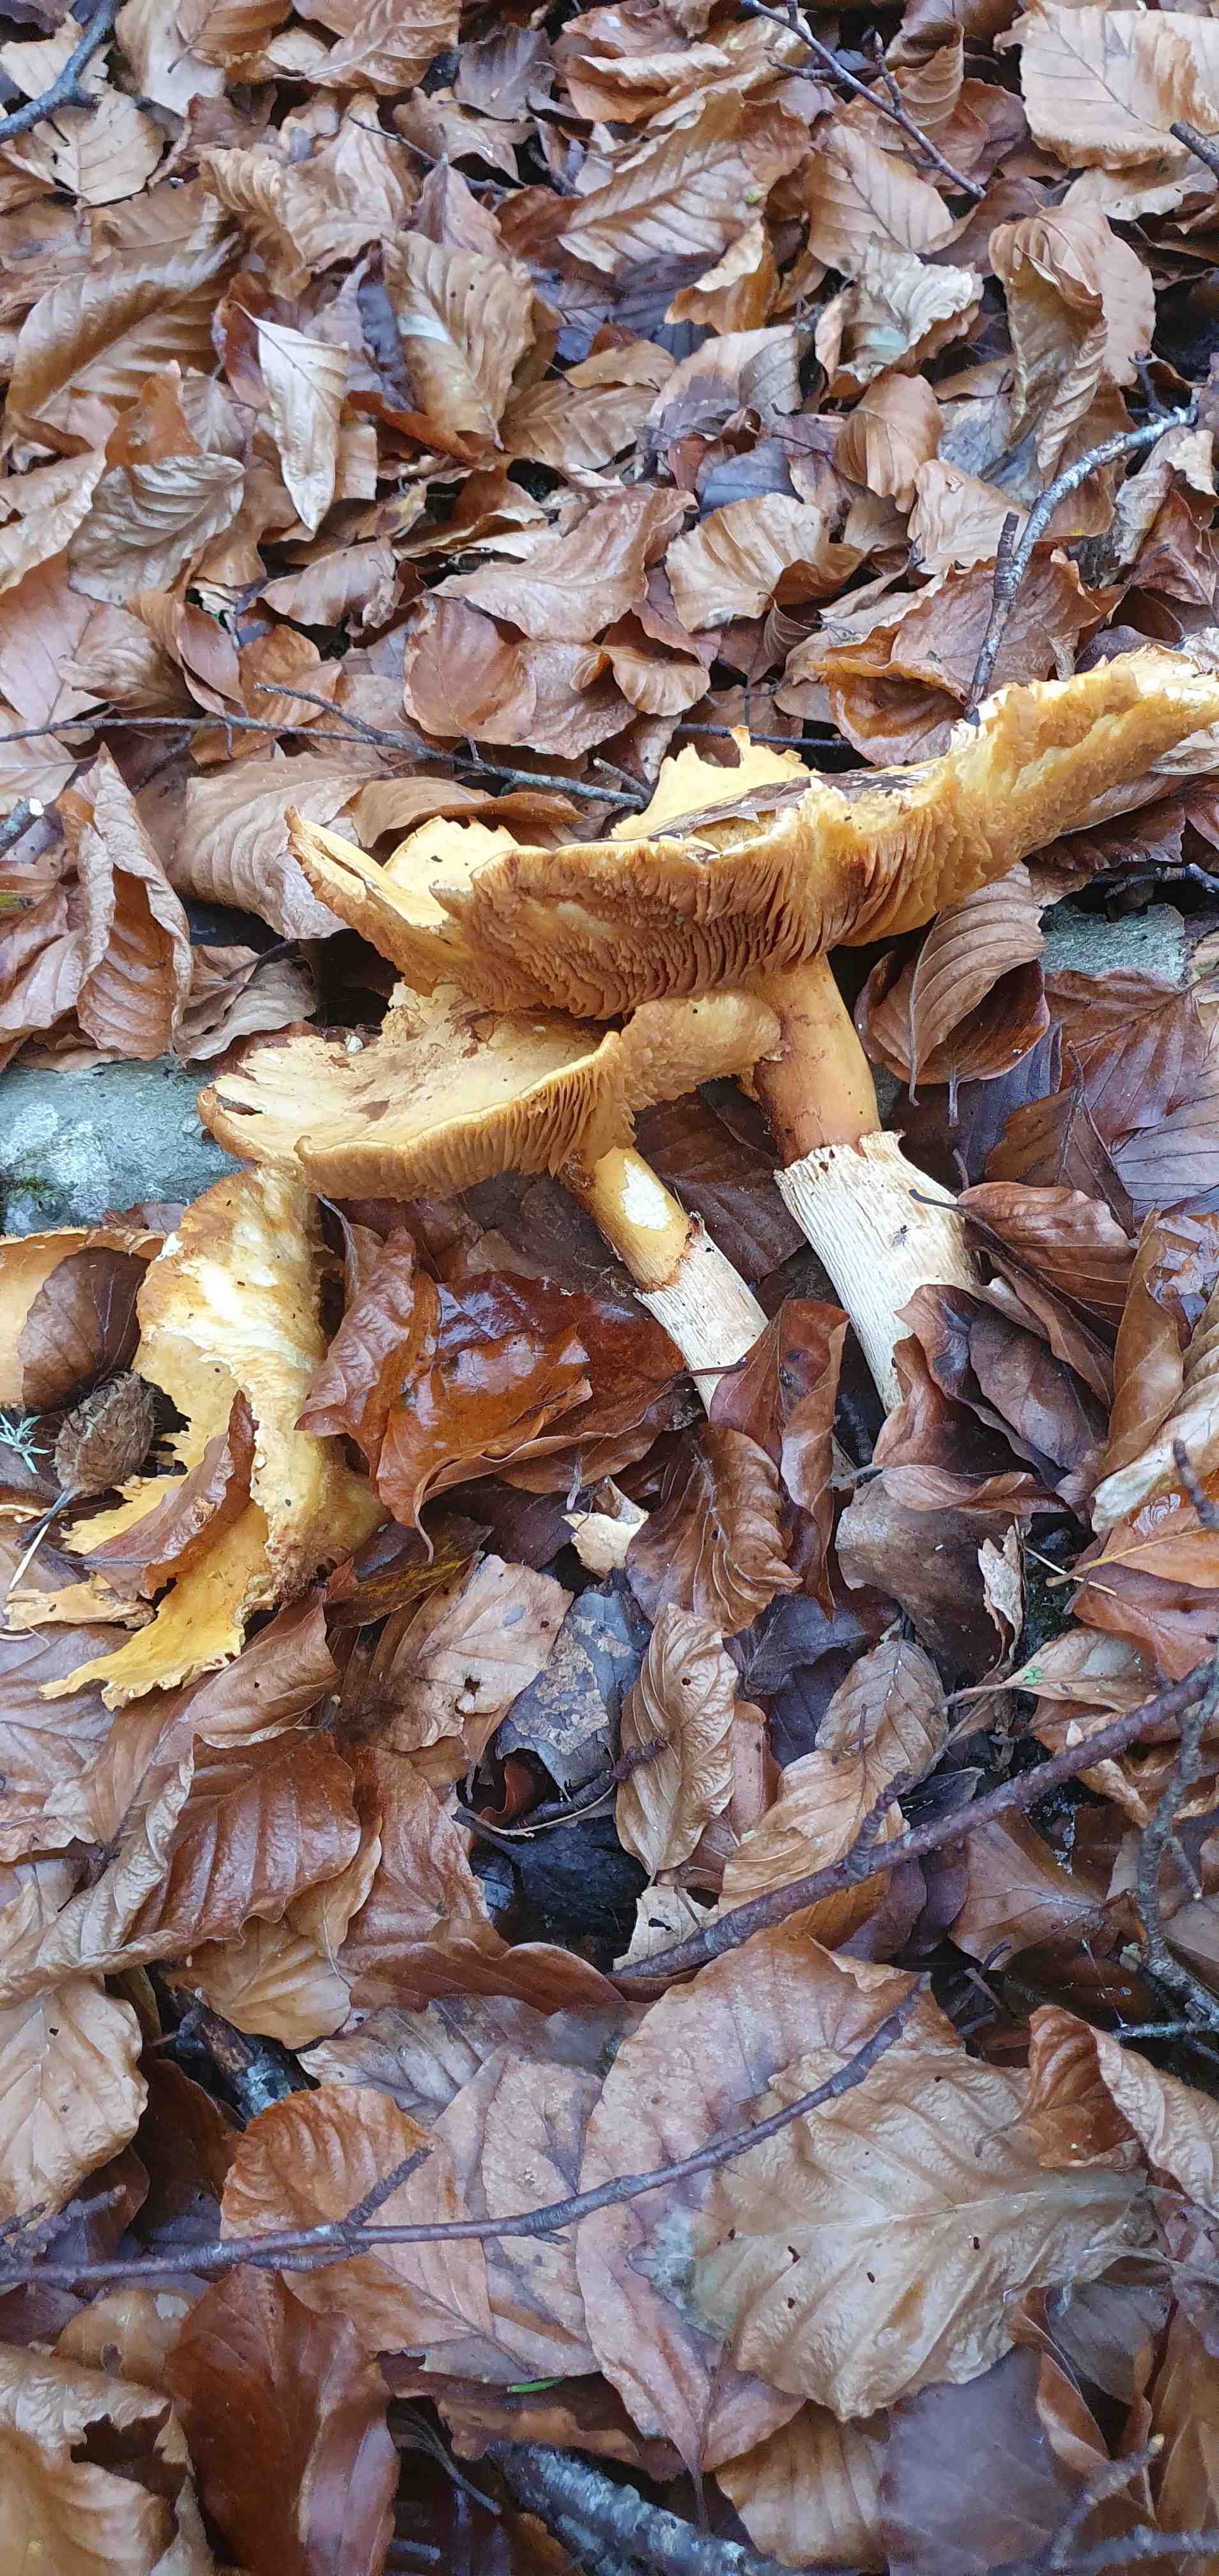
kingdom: Fungi
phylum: Basidiomycota
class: Agaricomycetes
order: Agaricales
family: Tricholomataceae
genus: Phaeolepiota
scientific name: Phaeolepiota aurea
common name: gyldenhat
